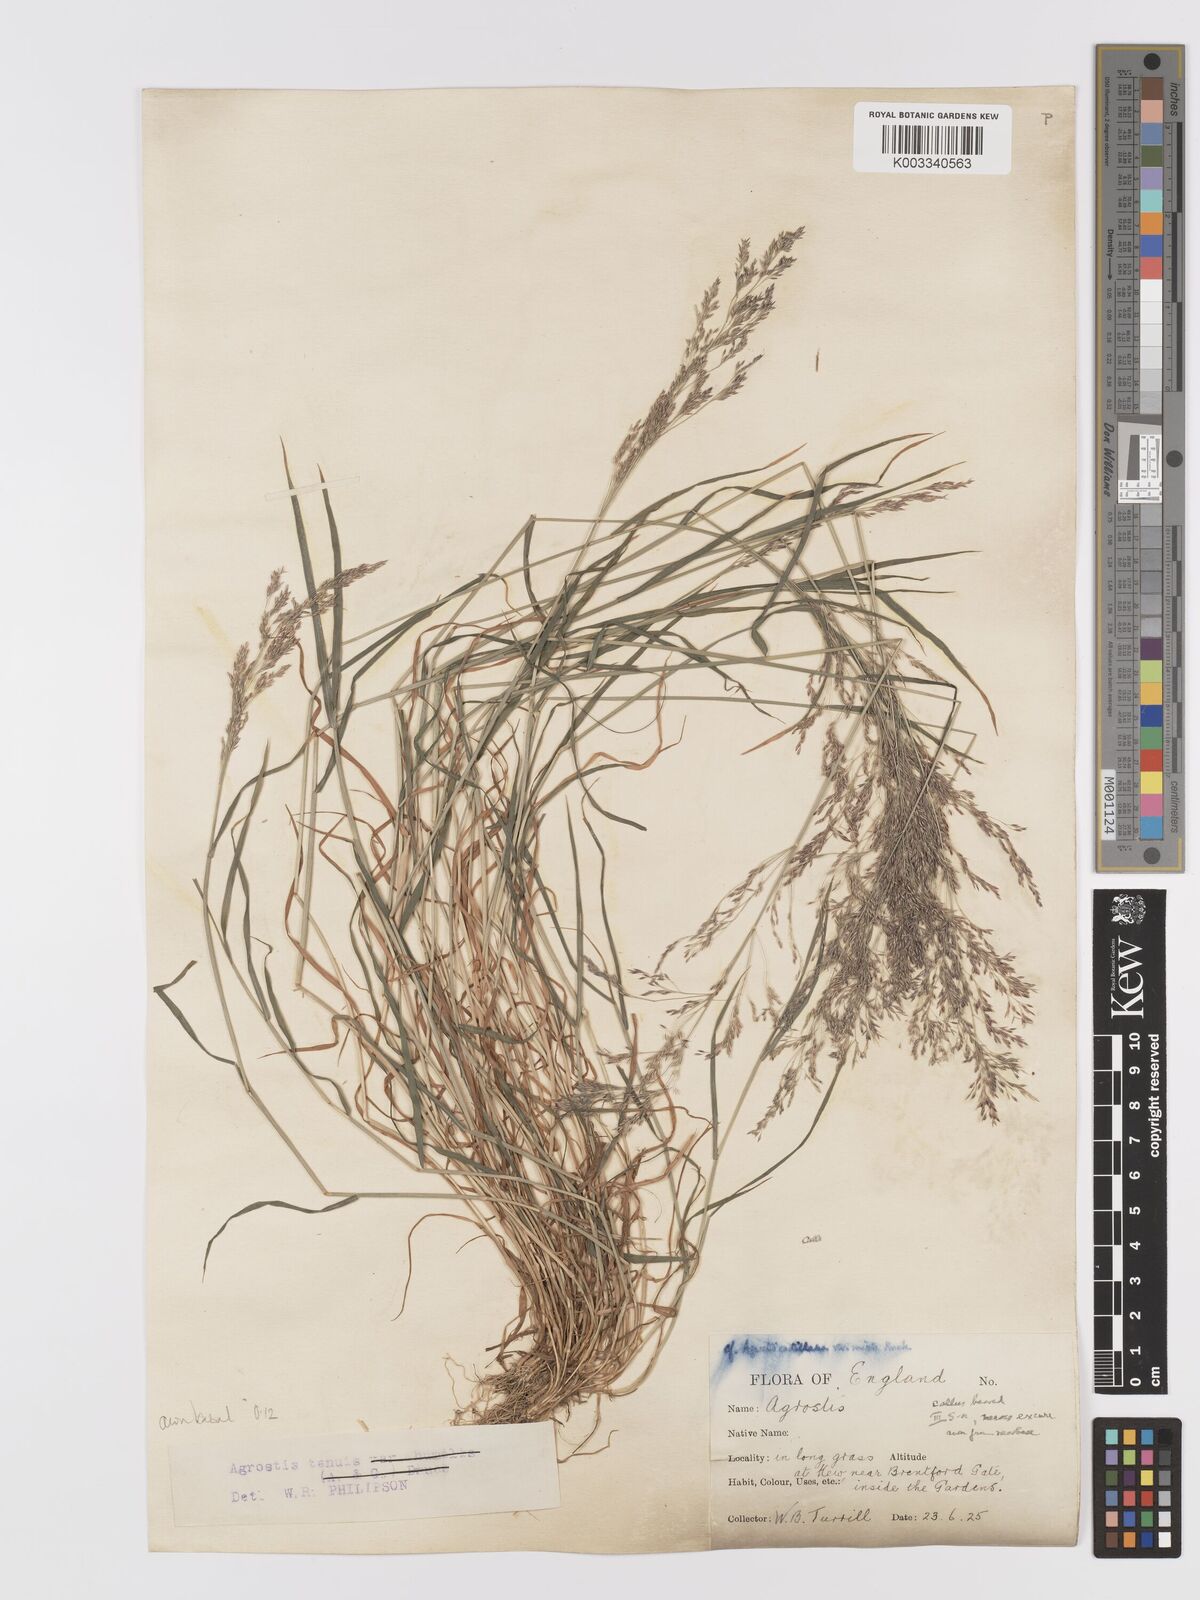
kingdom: Plantae
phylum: Tracheophyta
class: Liliopsida
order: Poales
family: Poaceae
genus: Agrostis
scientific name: Agrostis capillaris
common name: Colonial bentgrass
